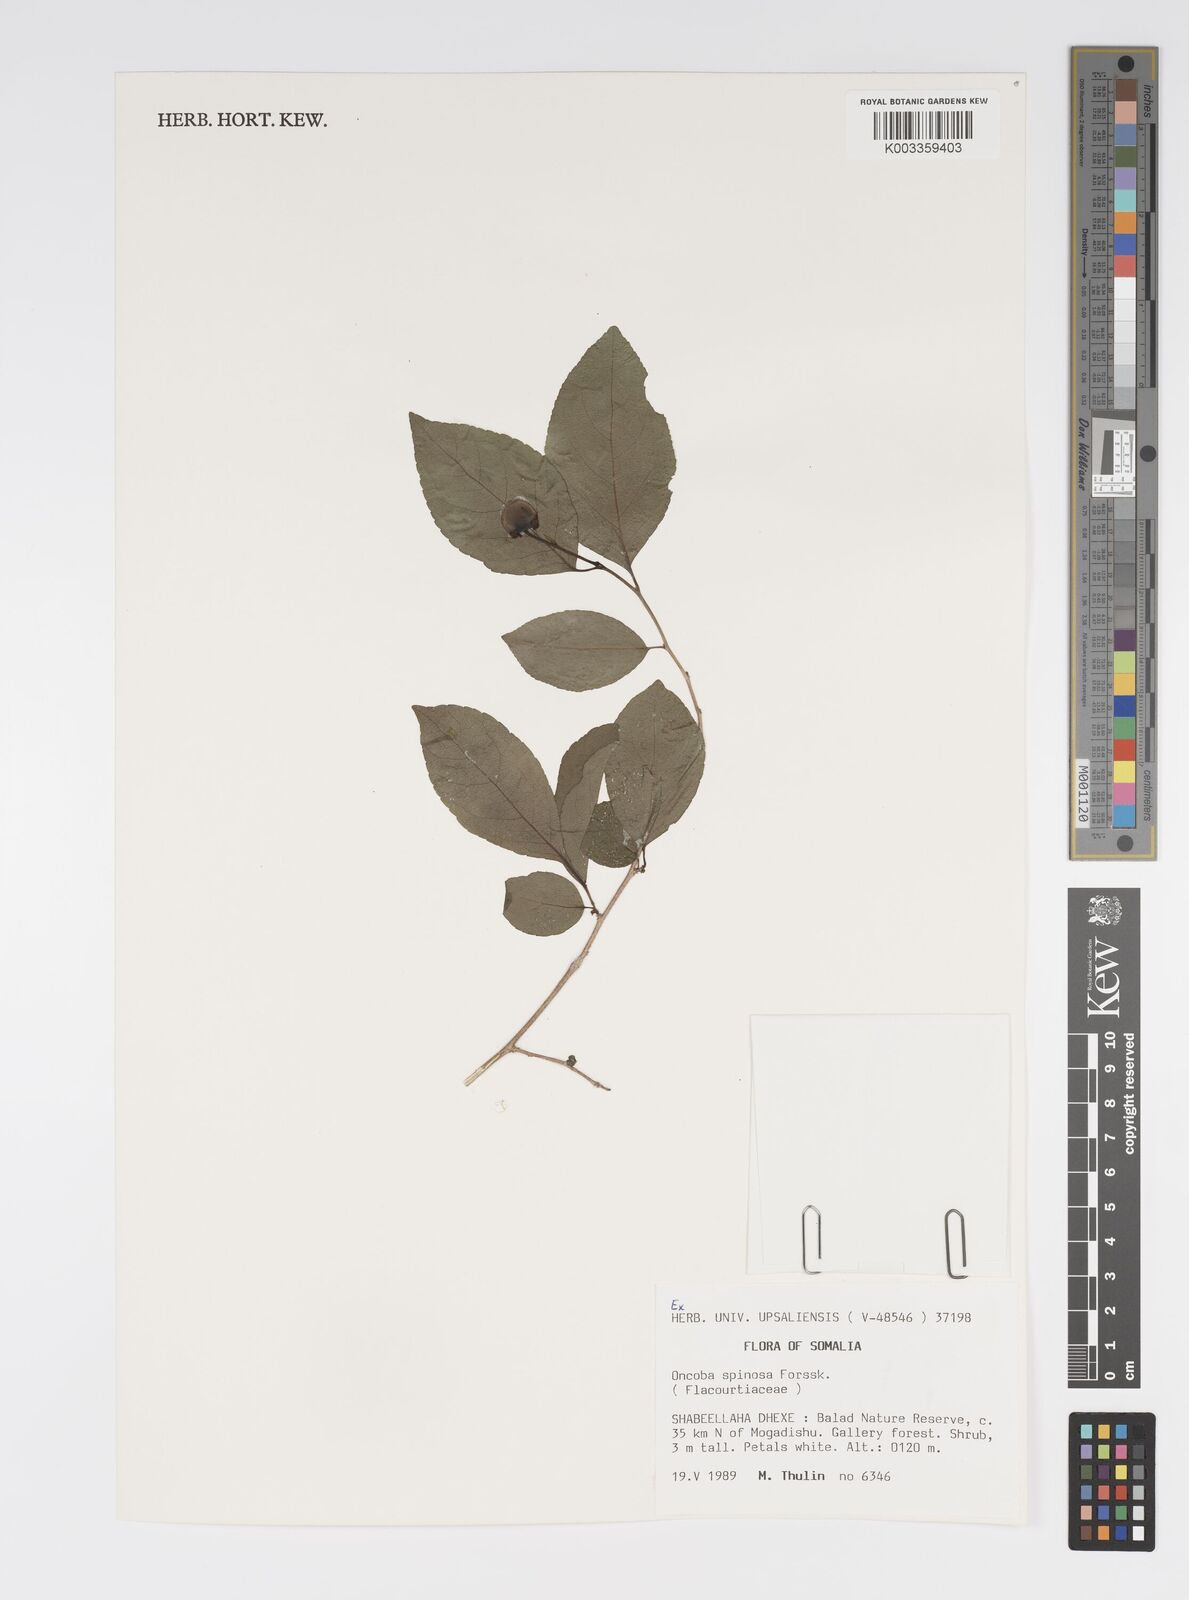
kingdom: Plantae
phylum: Tracheophyta
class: Magnoliopsida
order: Malpighiales
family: Salicaceae
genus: Oncoba
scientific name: Oncoba spinosa
